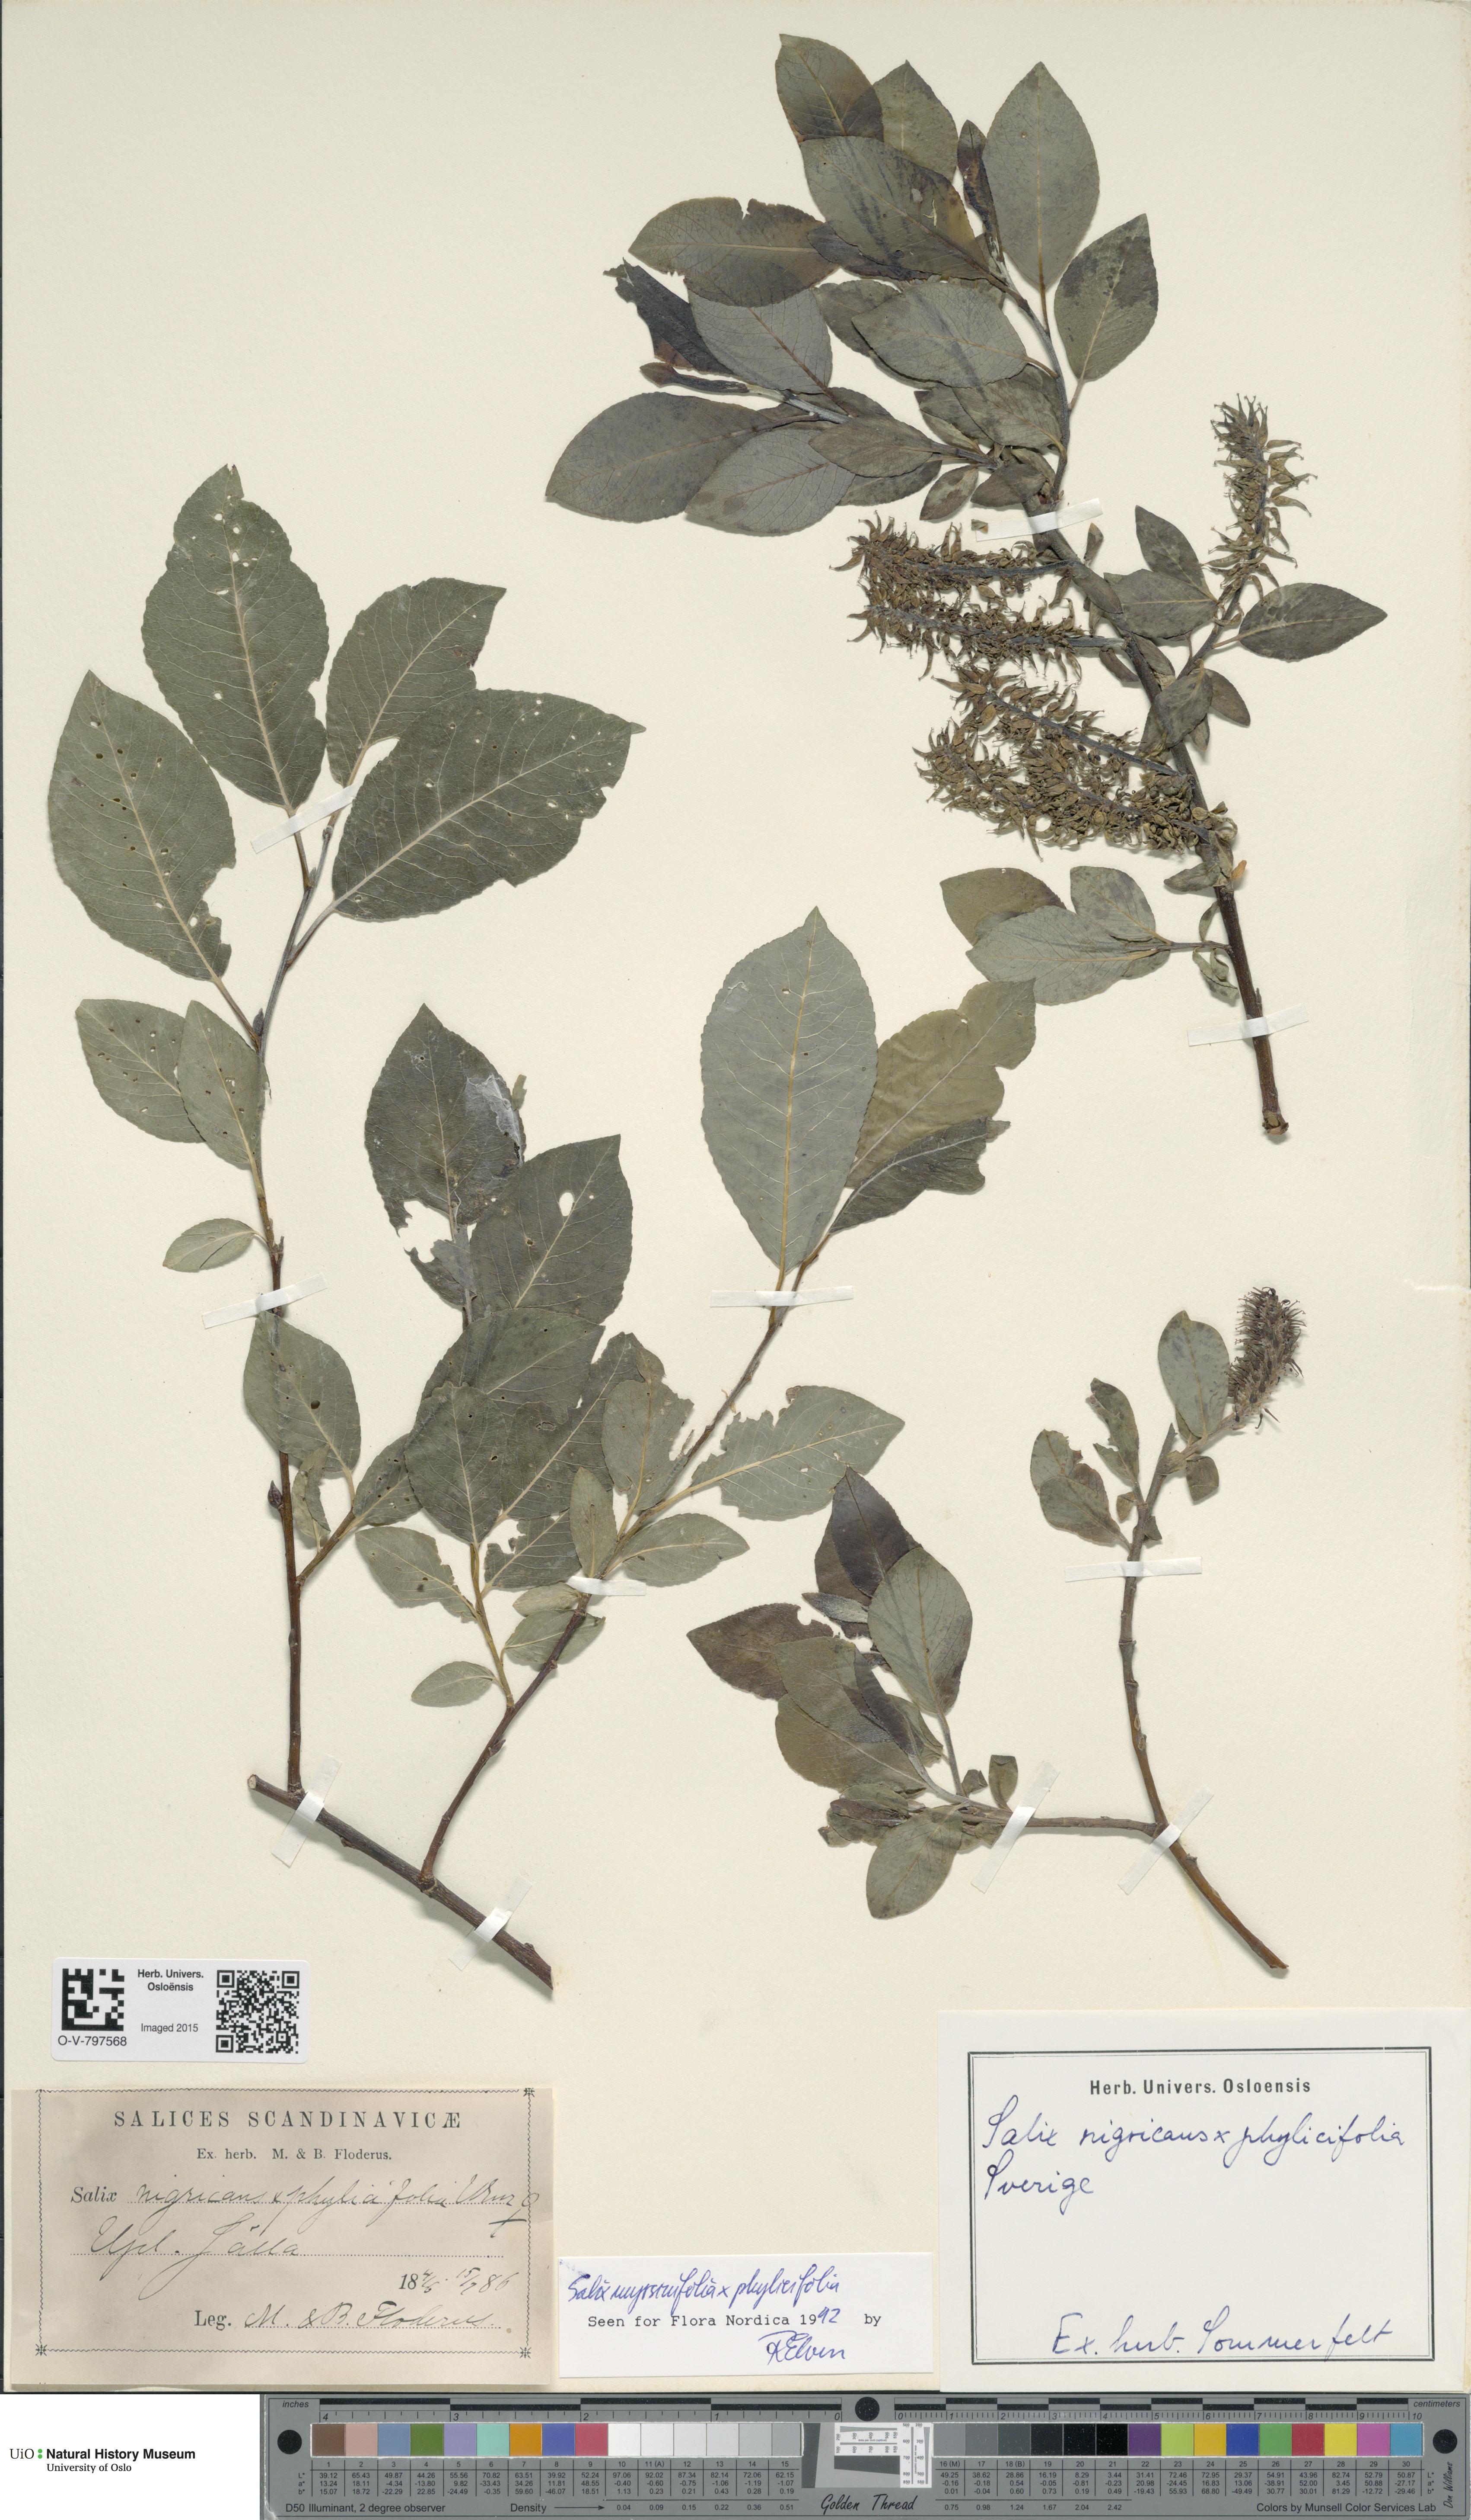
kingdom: Plantae
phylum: Tracheophyta
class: Magnoliopsida
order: Malpighiales
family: Salicaceae
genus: Salix
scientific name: Salix
